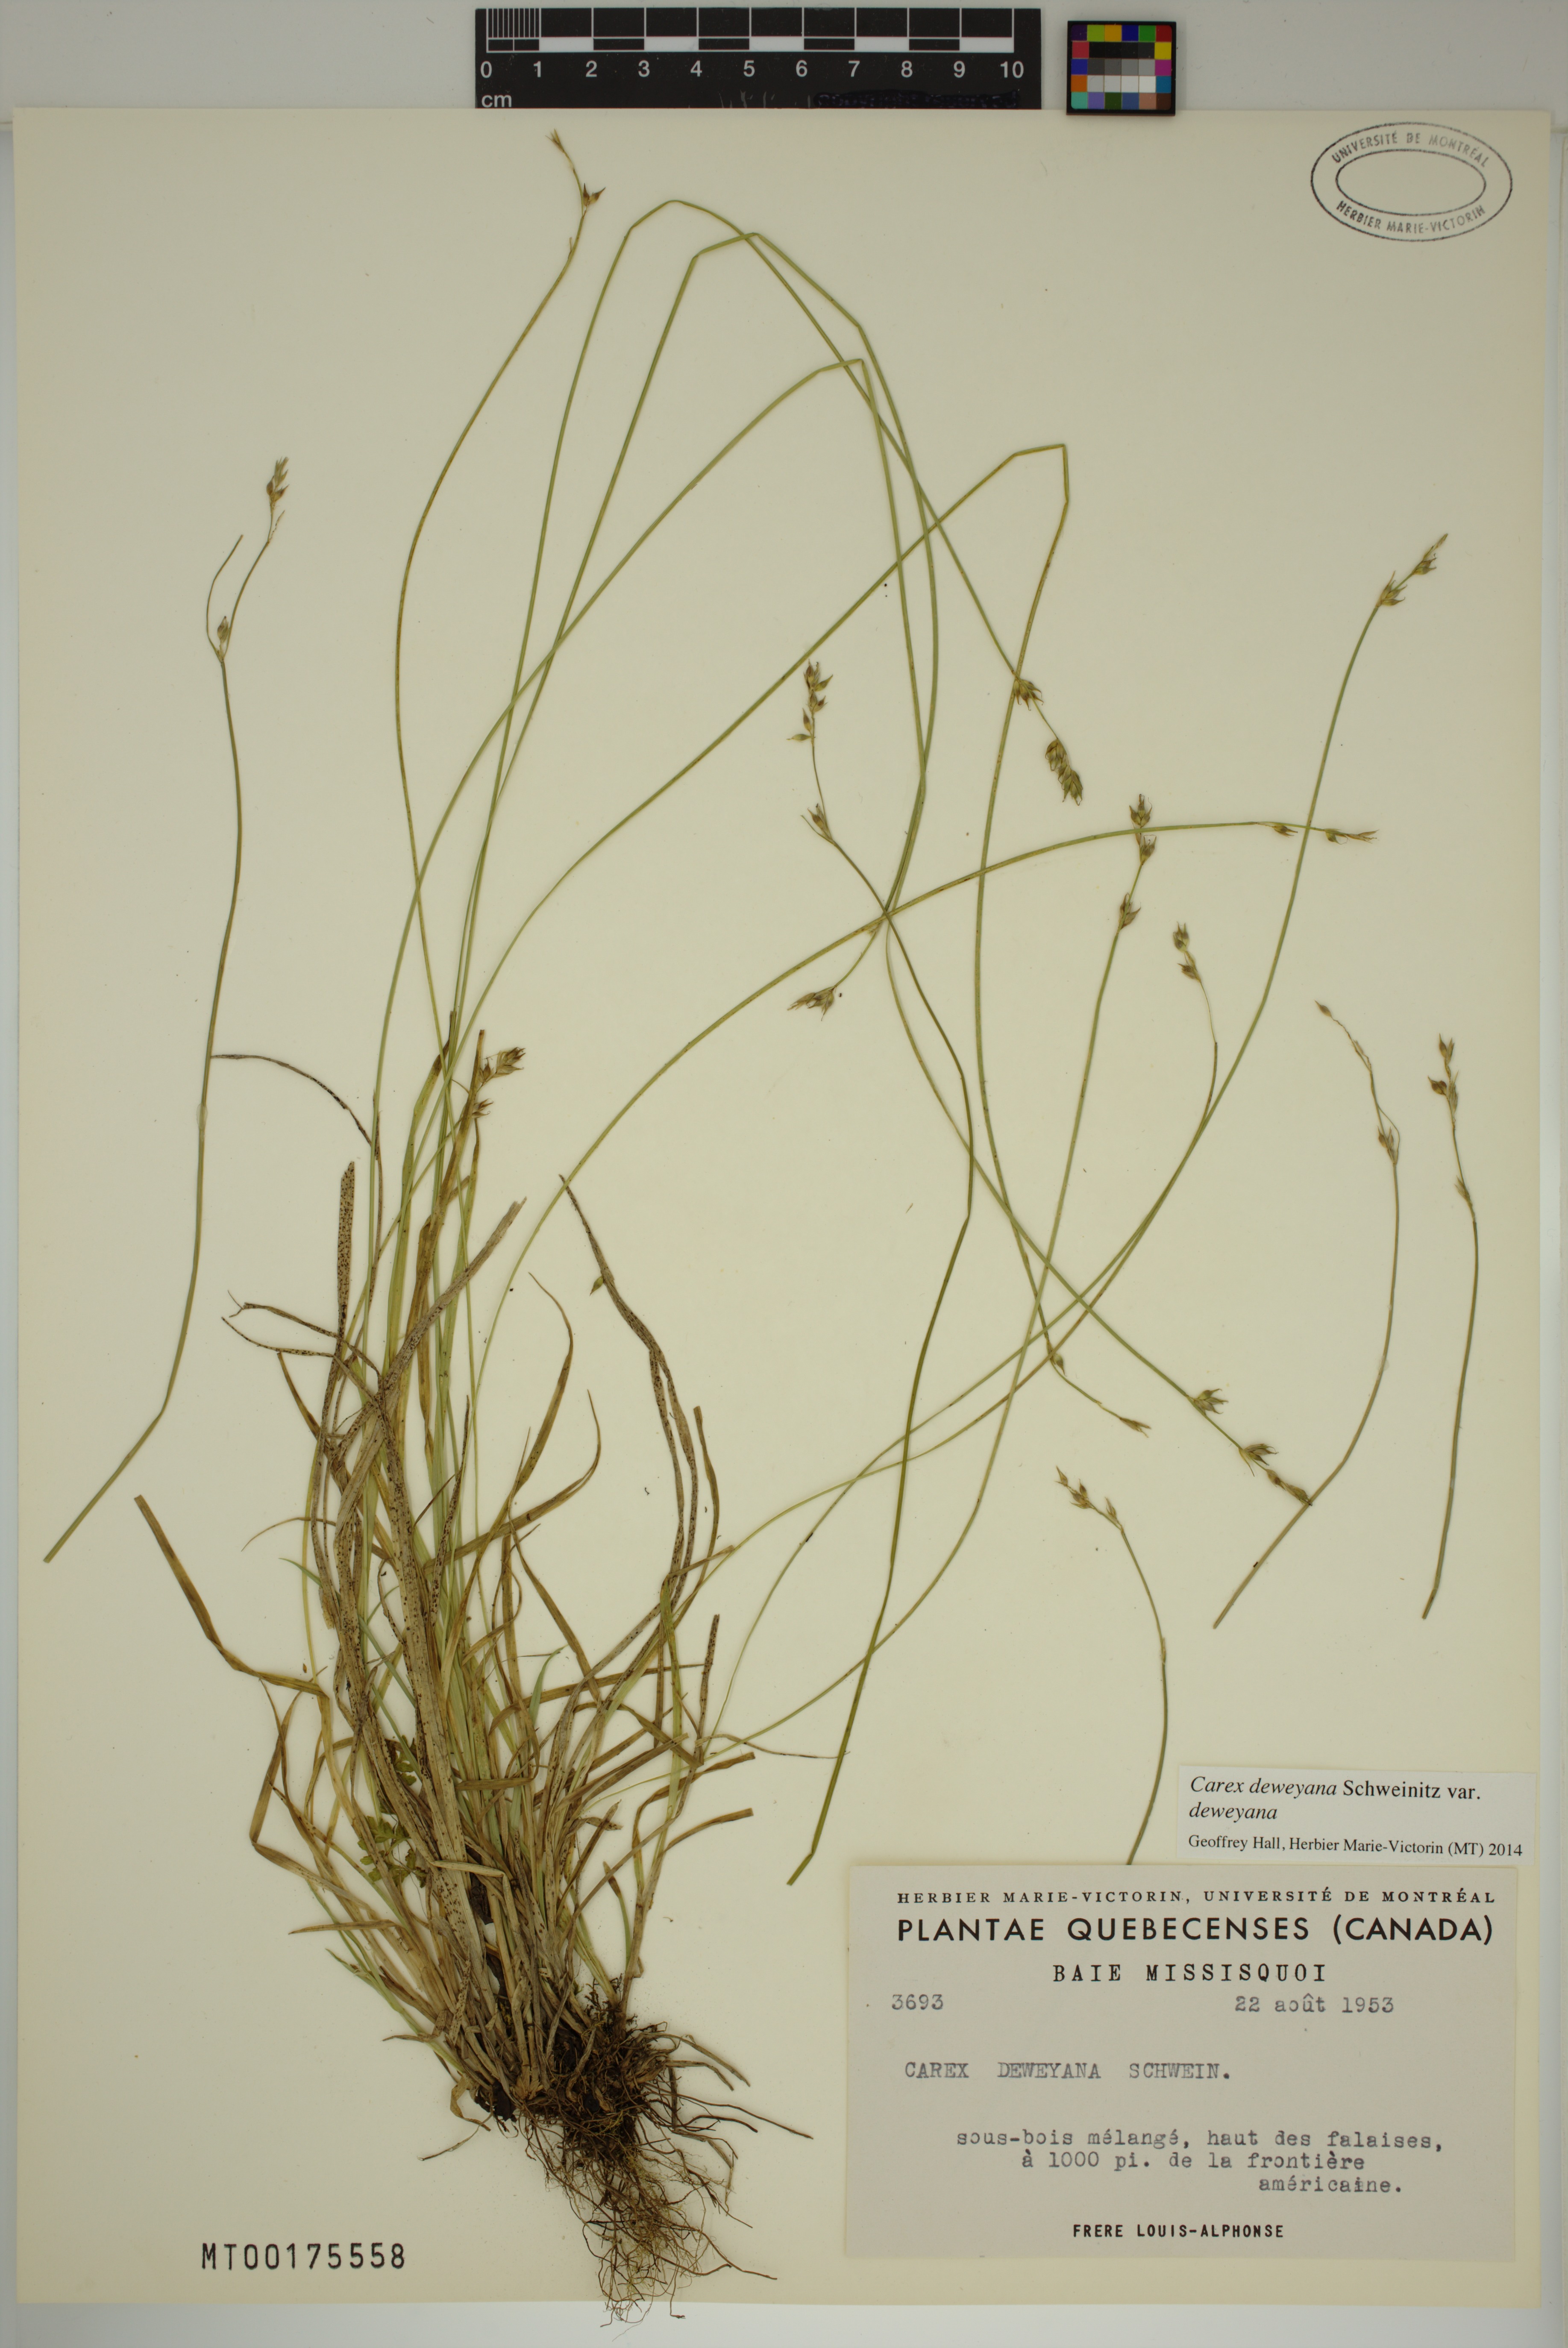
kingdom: Plantae
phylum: Tracheophyta
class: Liliopsida
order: Poales
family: Cyperaceae
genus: Carex
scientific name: Carex deweyana
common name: Dewey's sedge
